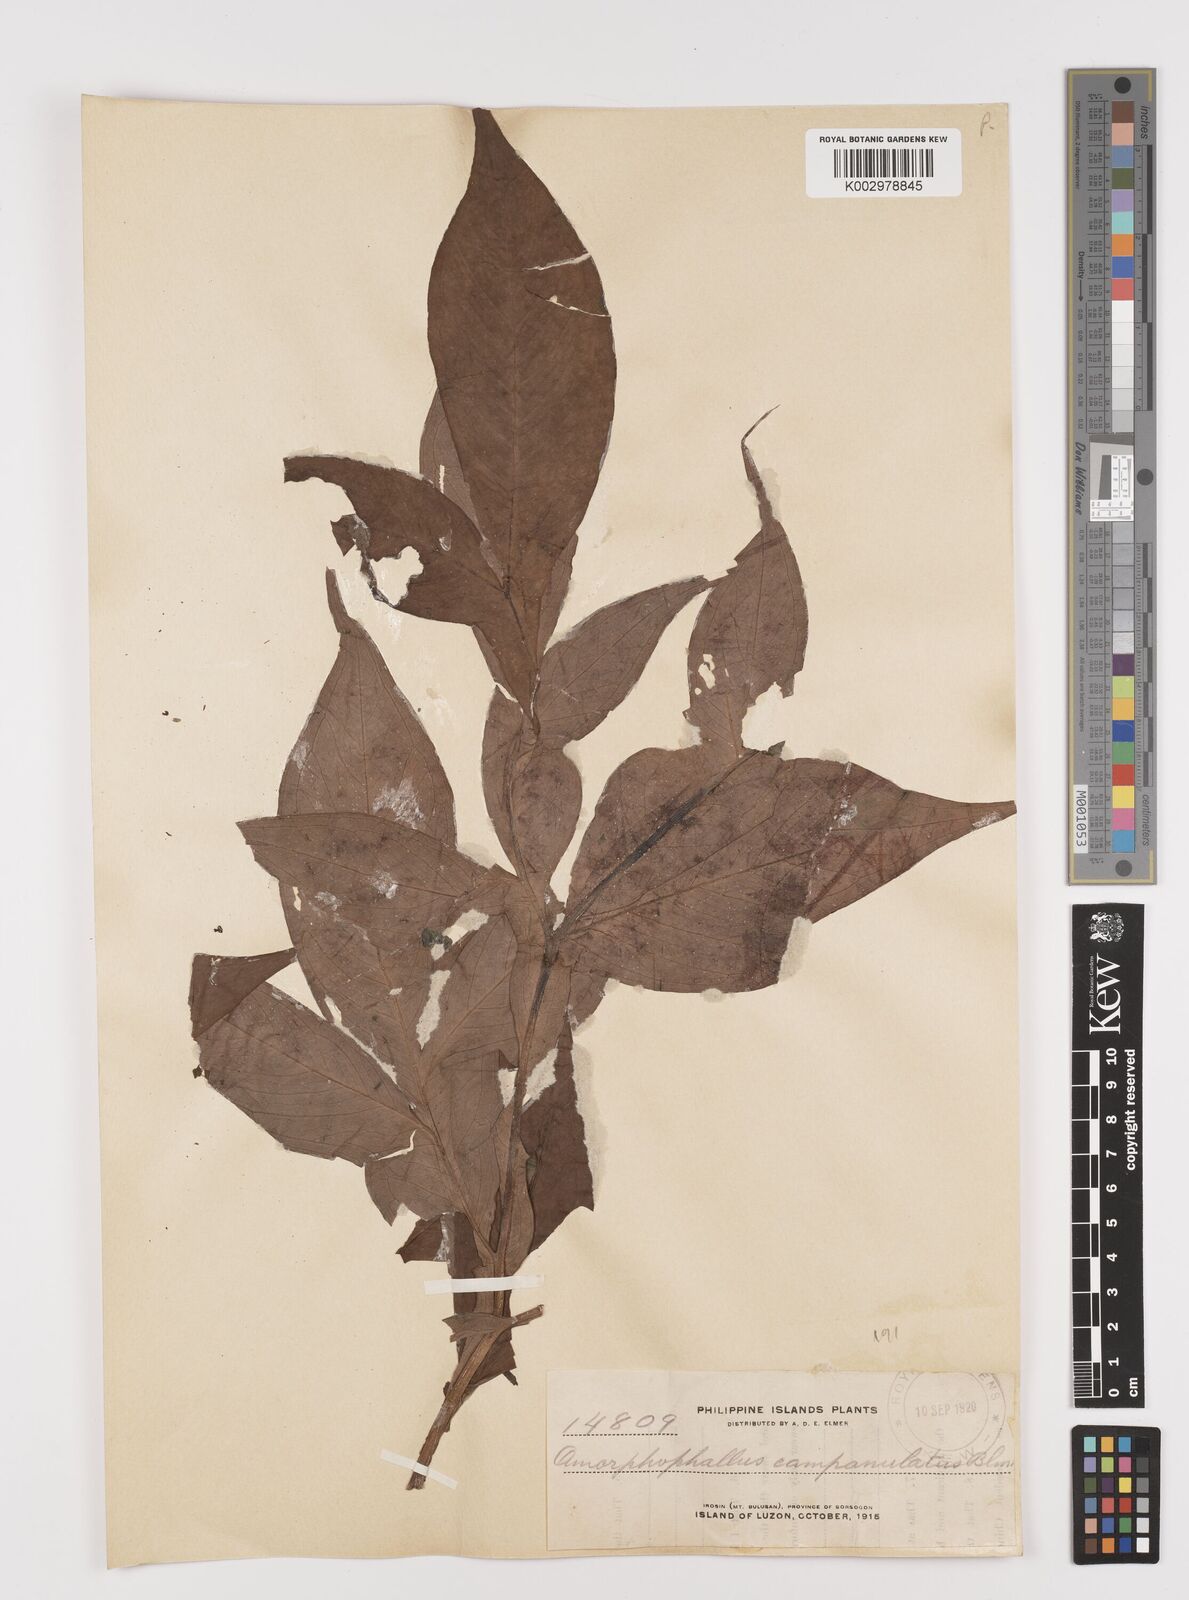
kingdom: Plantae
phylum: Tracheophyta
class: Liliopsida
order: Alismatales
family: Araceae
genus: Amorphophallus
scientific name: Amorphophallus paeoniifolius
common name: Telinga-potato
